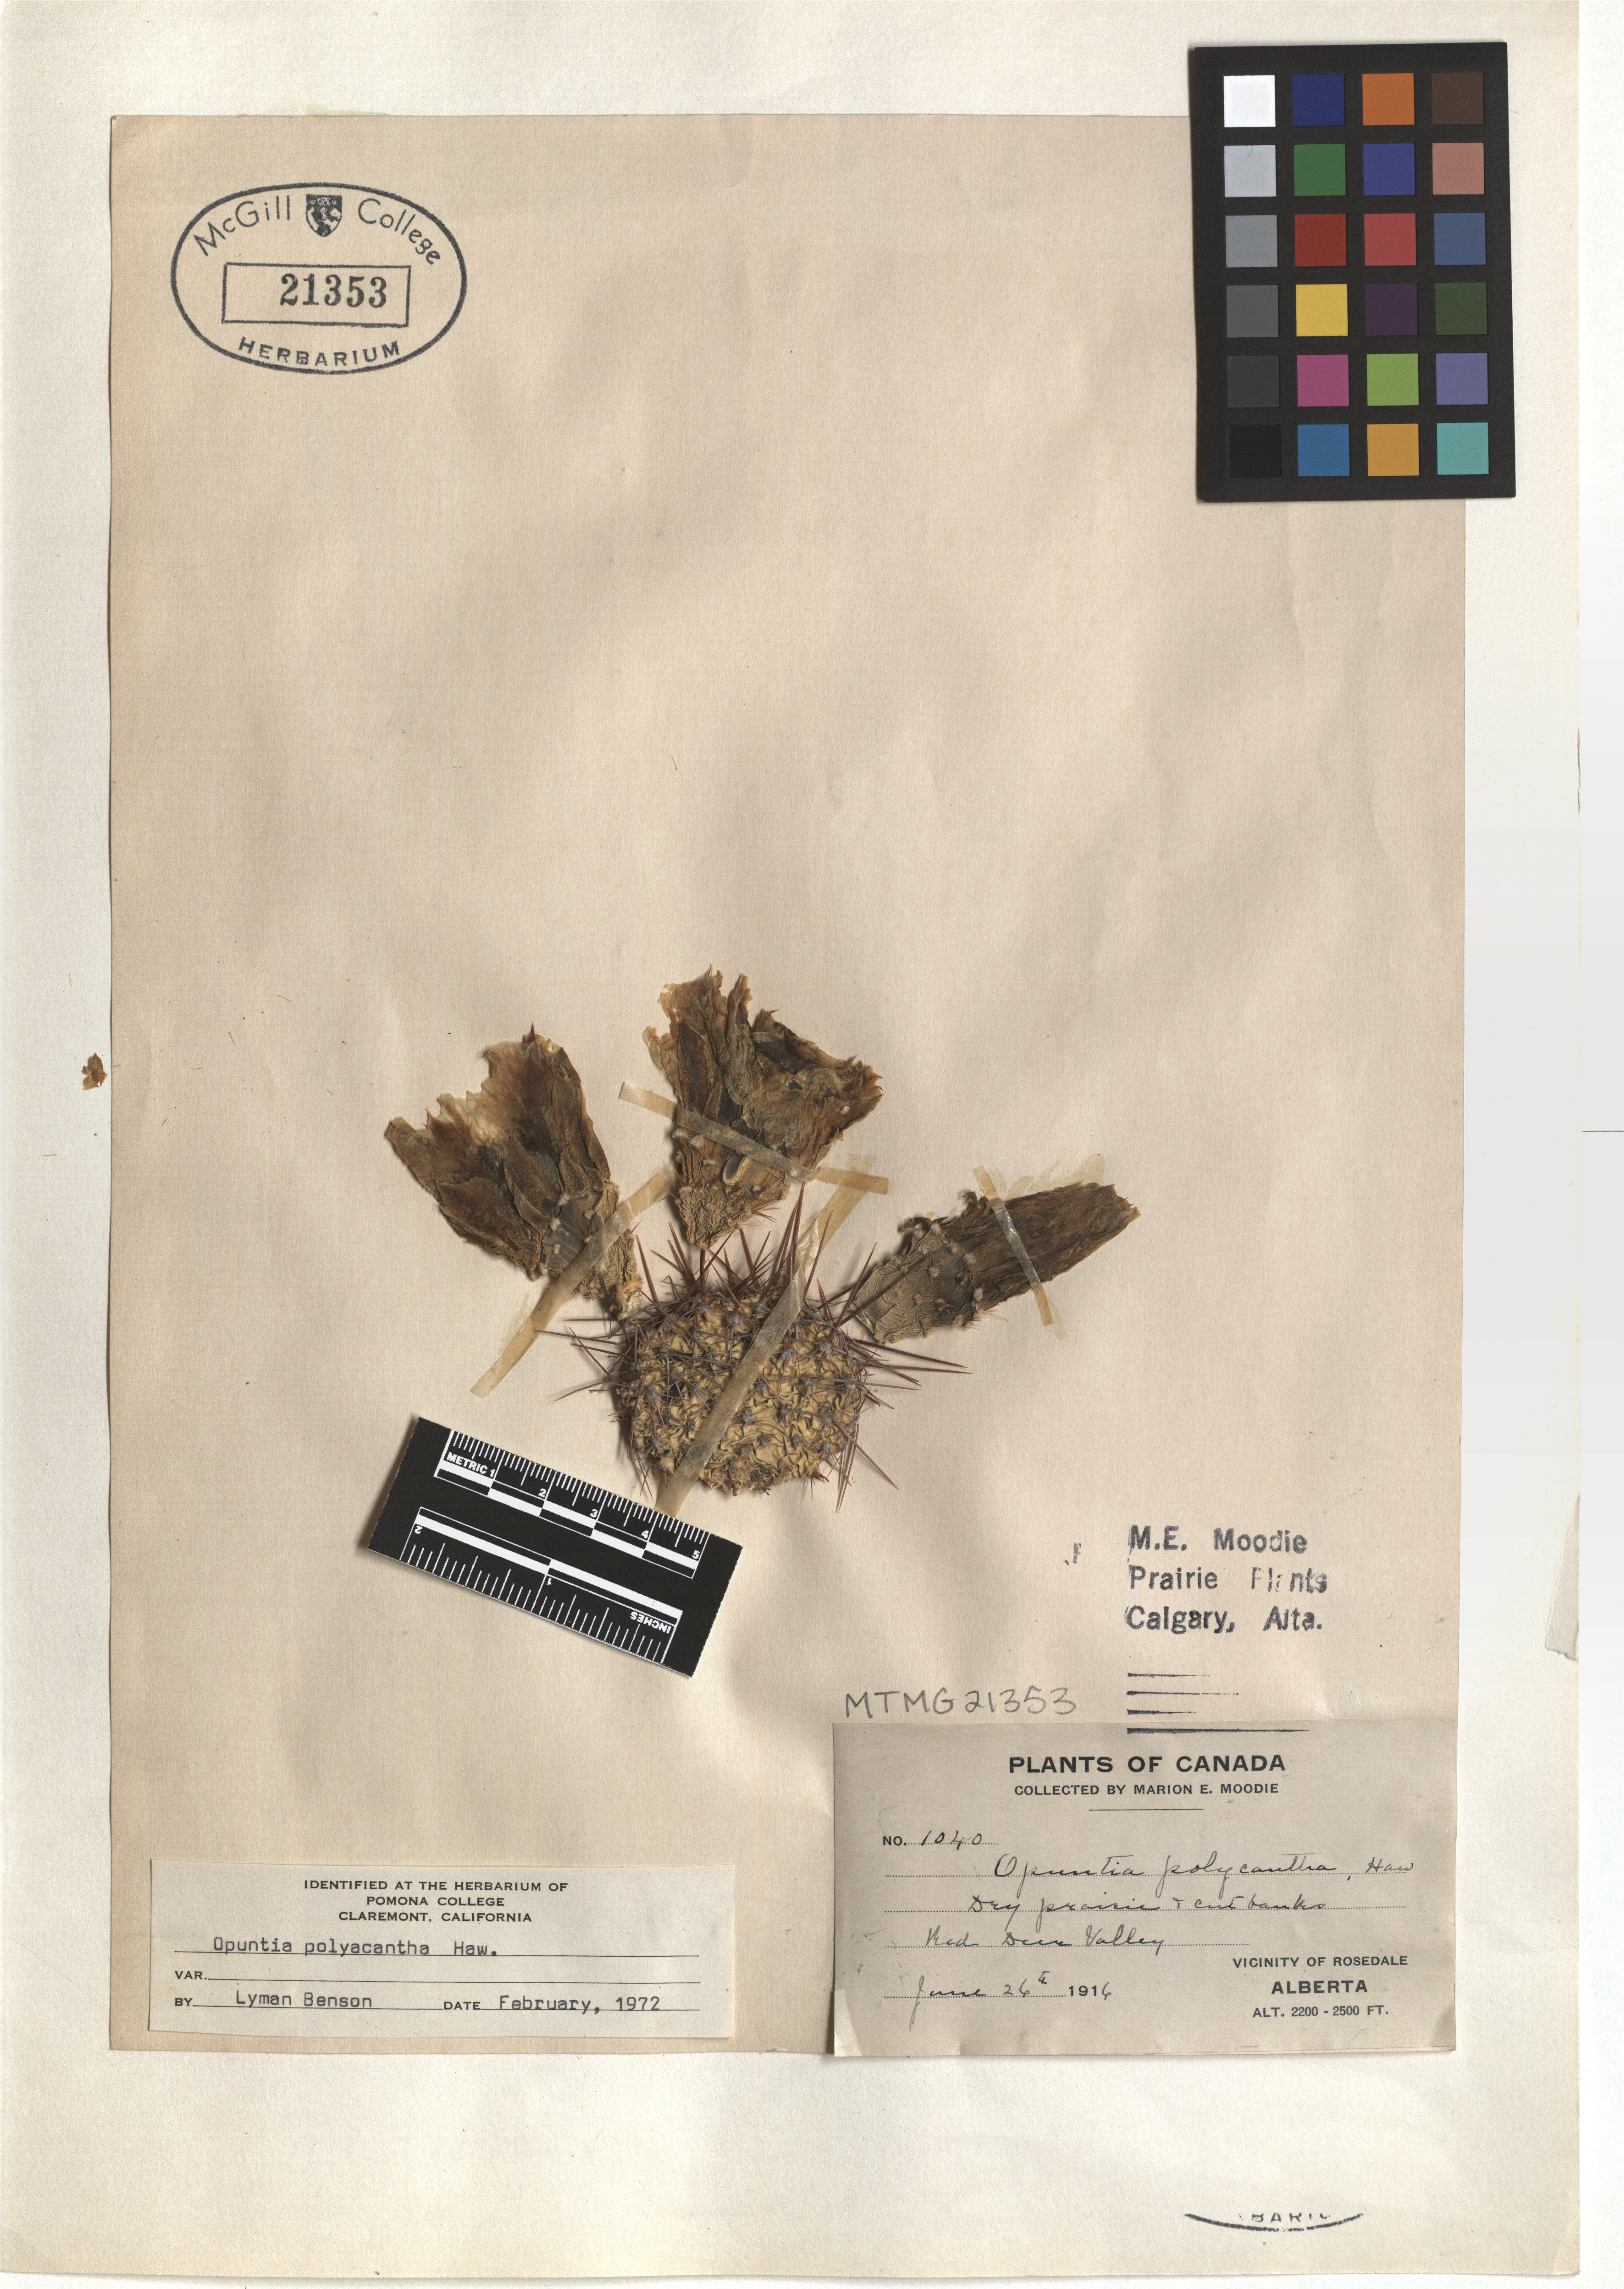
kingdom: Plantae
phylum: Tracheophyta
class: Magnoliopsida
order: Caryophyllales
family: Cactaceae
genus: Opuntia
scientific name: Opuntia polyacantha
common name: Plains prickly-pear
